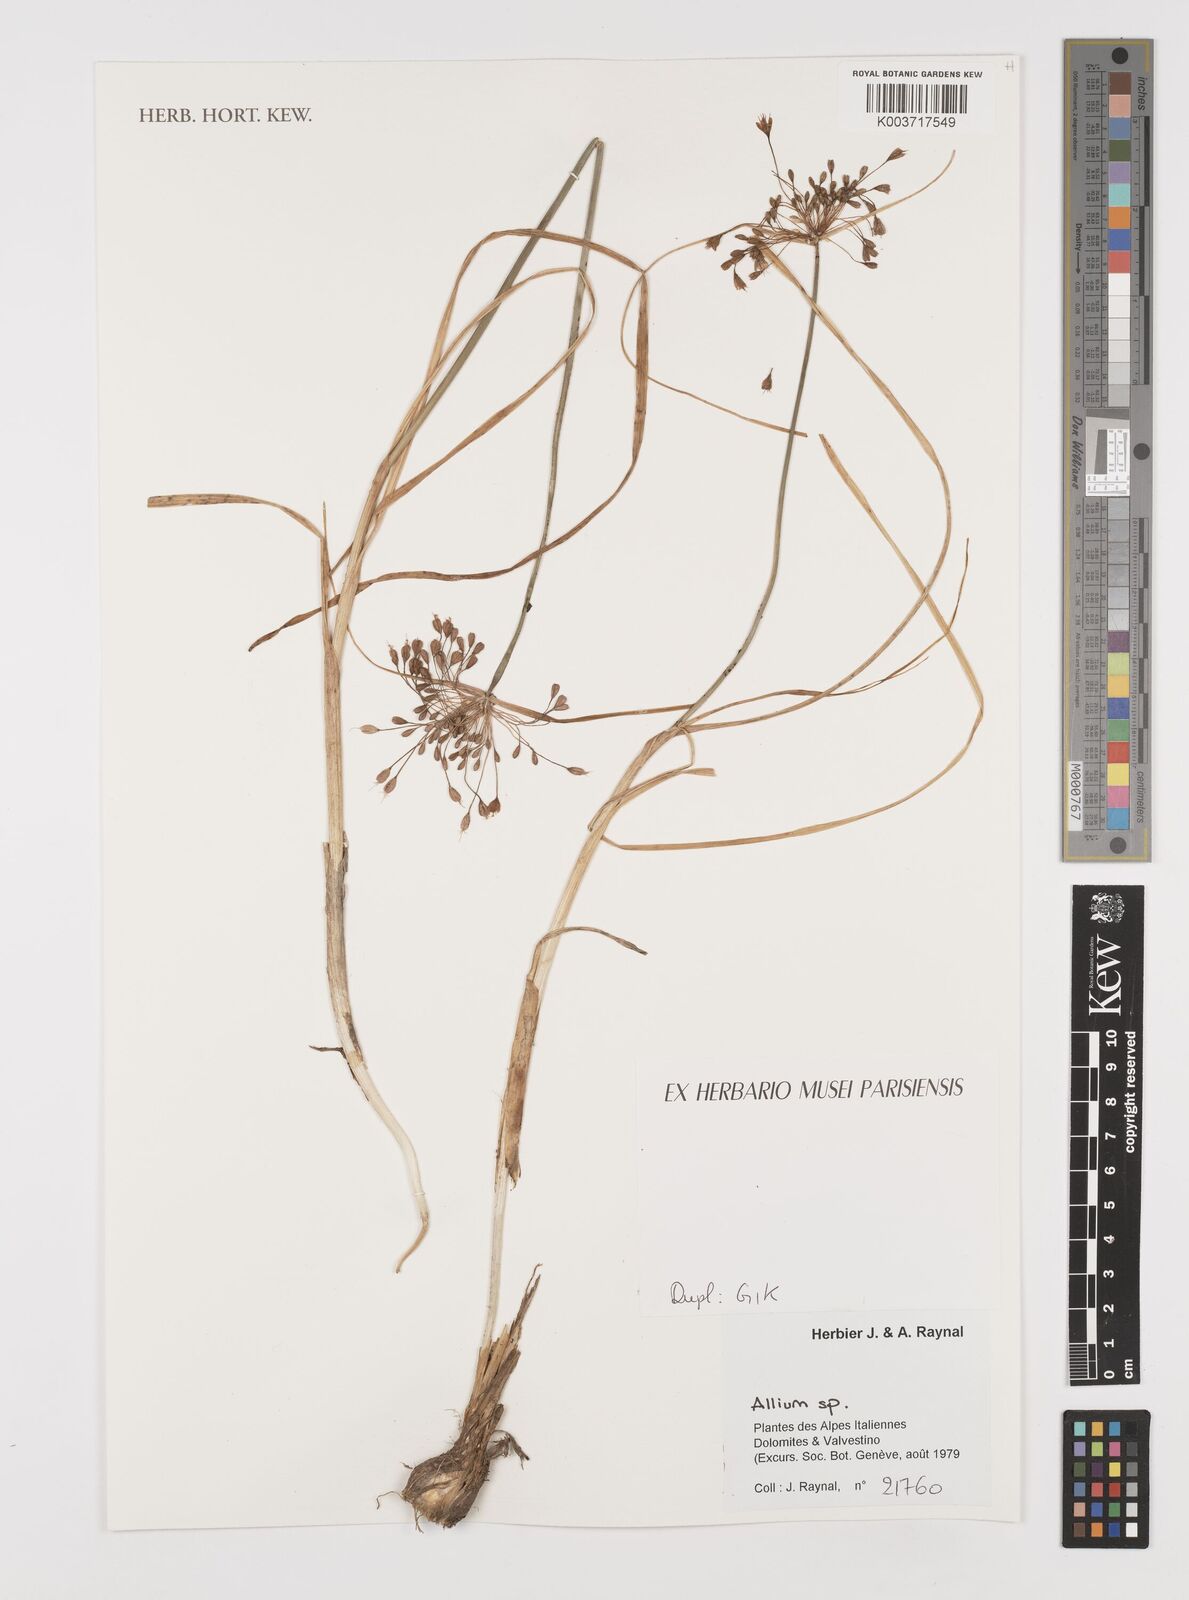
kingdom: Plantae
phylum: Tracheophyta
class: Liliopsida
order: Asparagales
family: Amaryllidaceae
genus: Allium
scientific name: Allium
